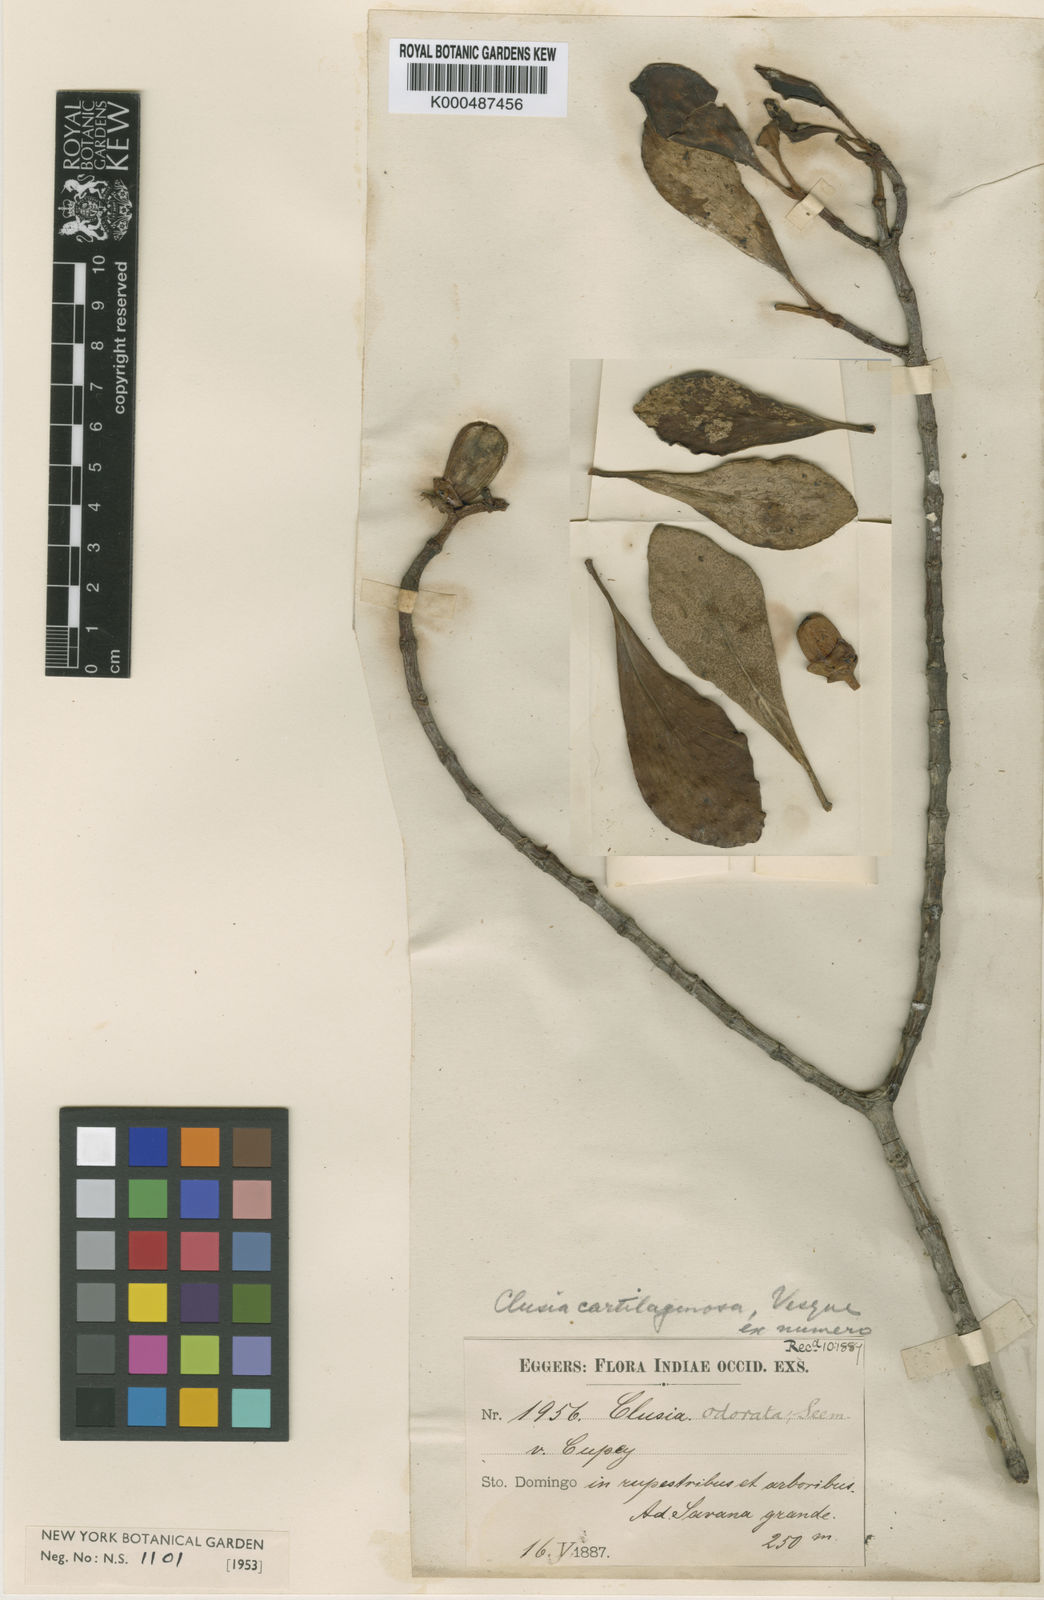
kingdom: Plantae
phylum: Tracheophyta
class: Magnoliopsida
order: Malpighiales
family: Clusiaceae
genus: Clusia
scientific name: Clusia
